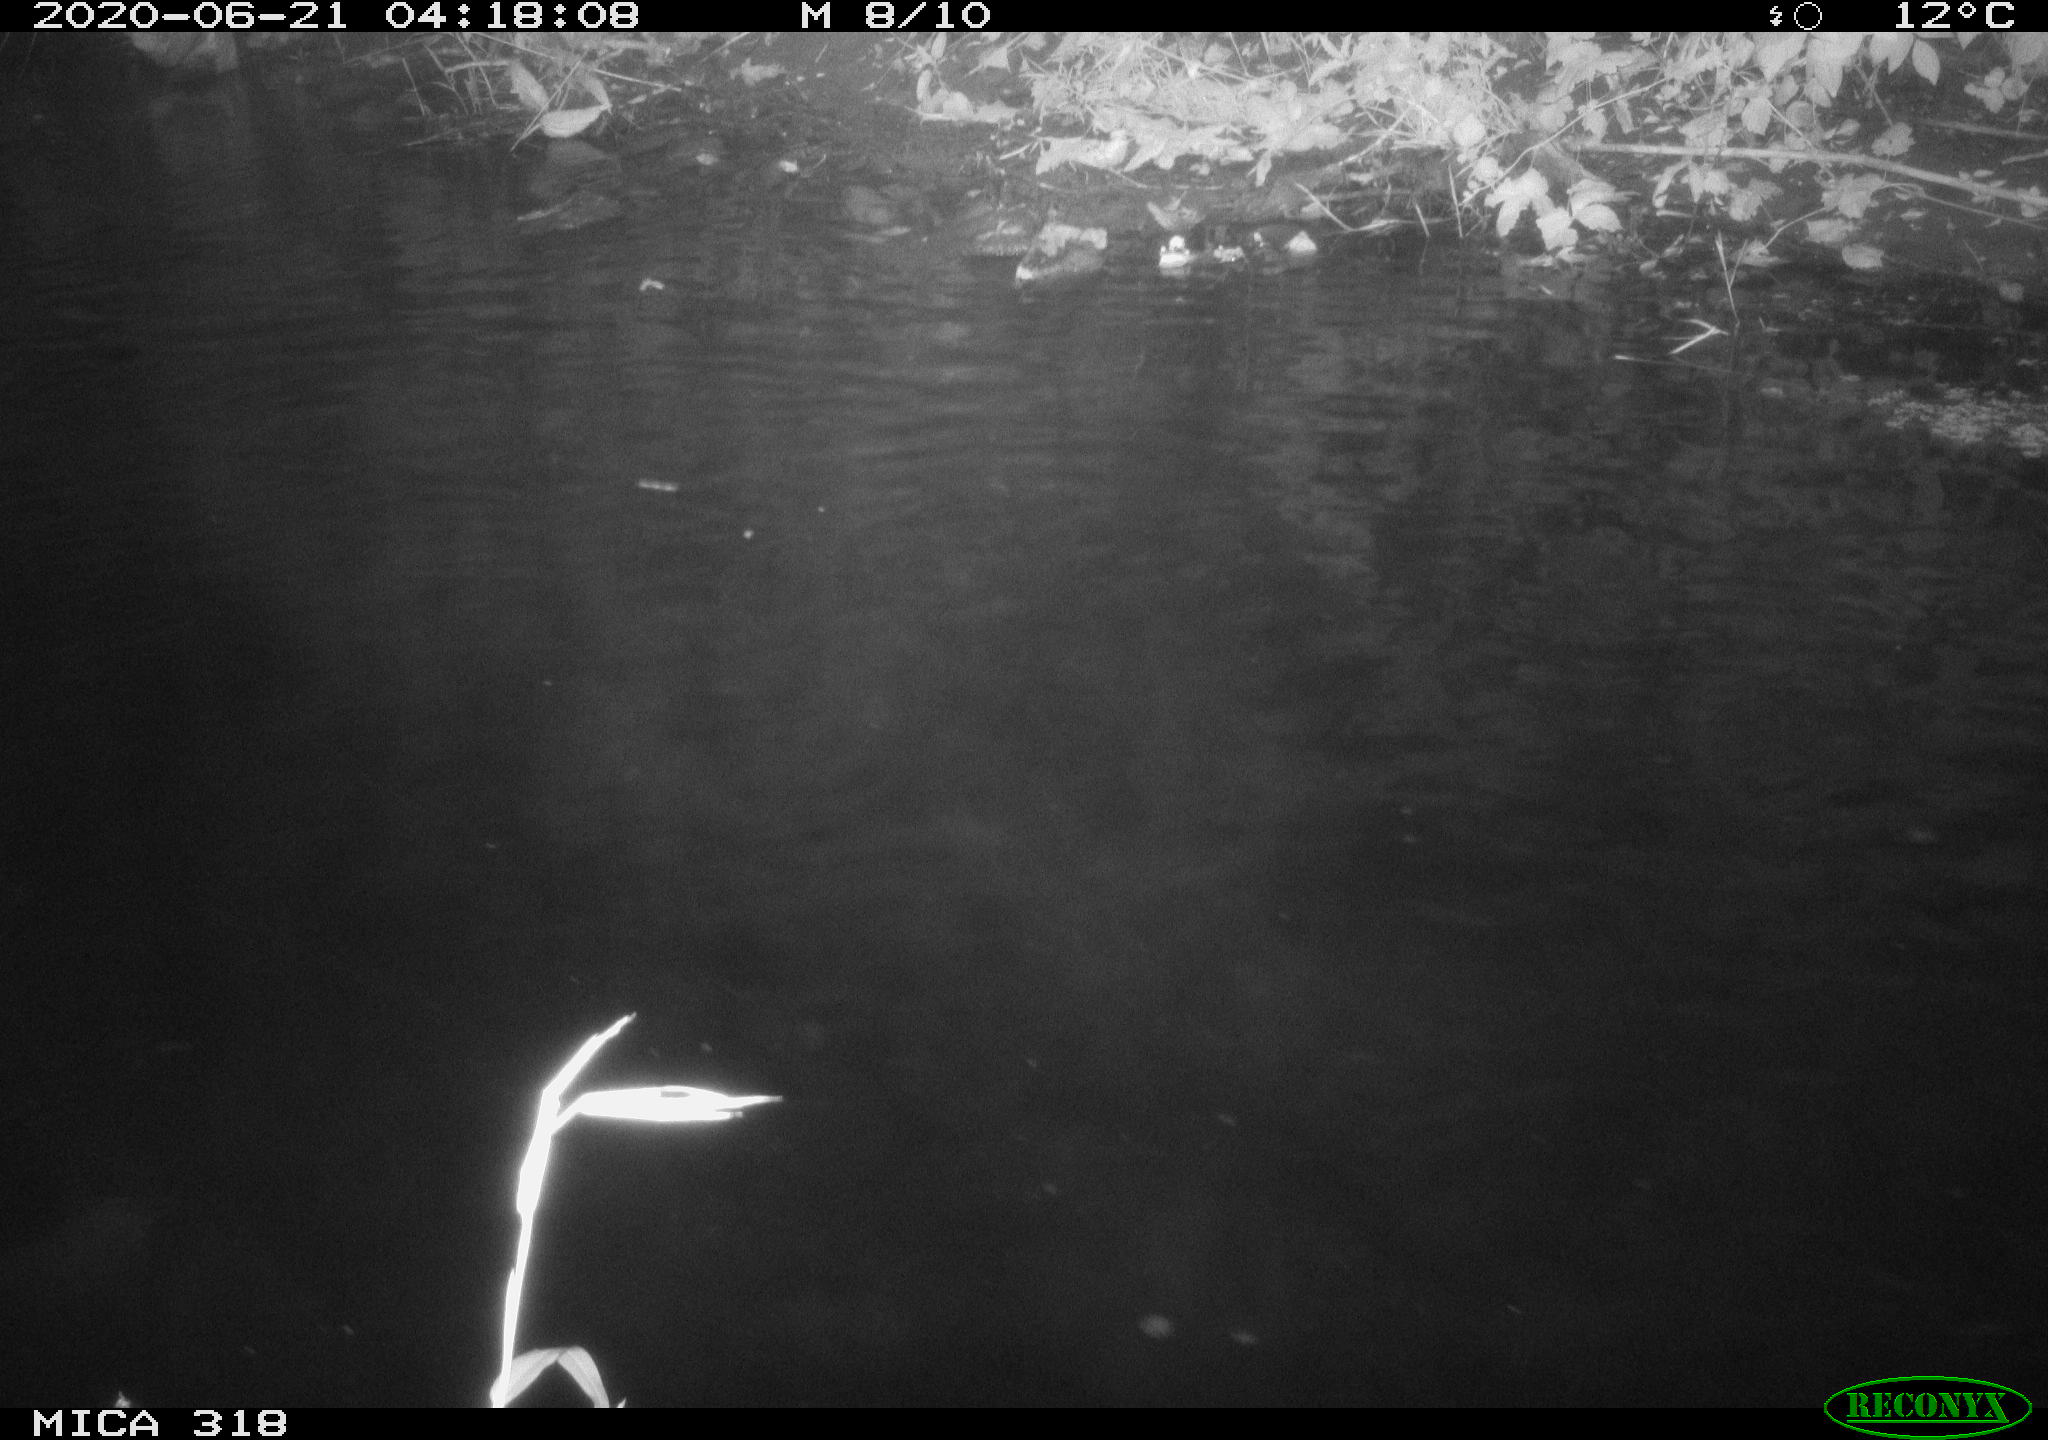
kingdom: Animalia
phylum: Chordata
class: Aves
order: Anseriformes
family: Anatidae
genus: Anas
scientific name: Anas platyrhynchos
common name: Mallard
